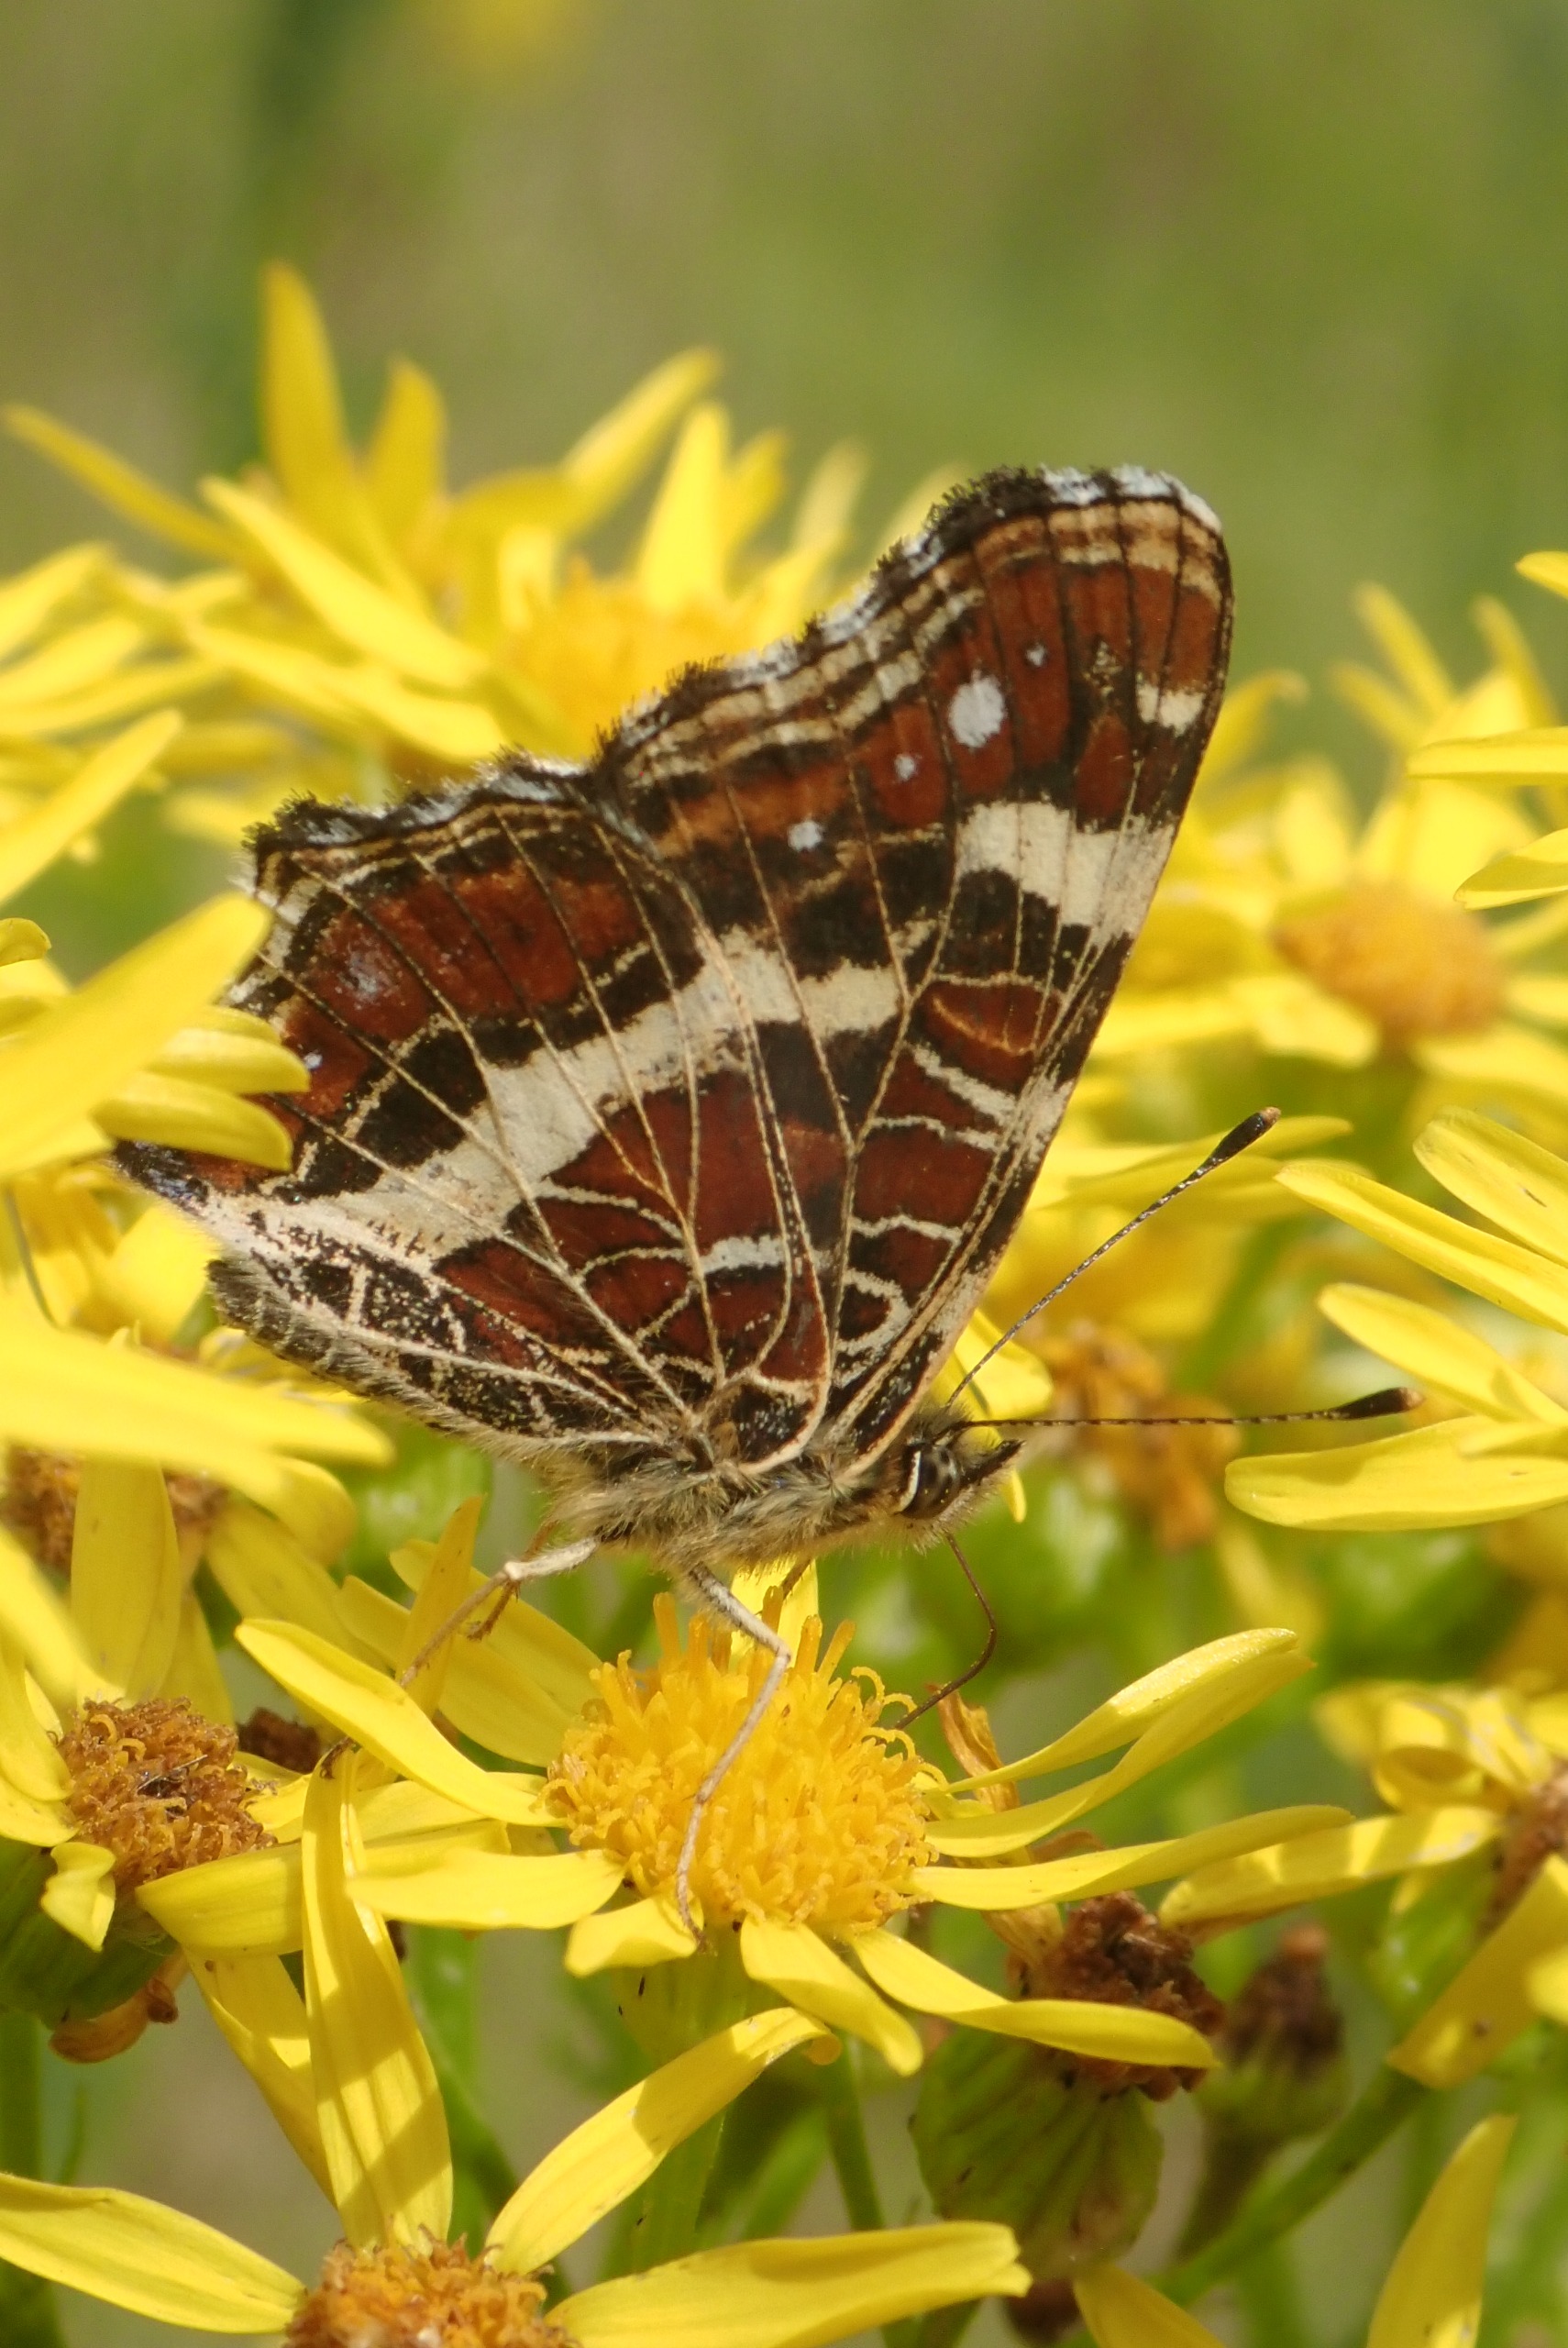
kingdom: Animalia
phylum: Arthropoda
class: Insecta
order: Lepidoptera
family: Nymphalidae
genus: Araschnia
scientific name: Araschnia levana
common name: Nældesommerfugl
